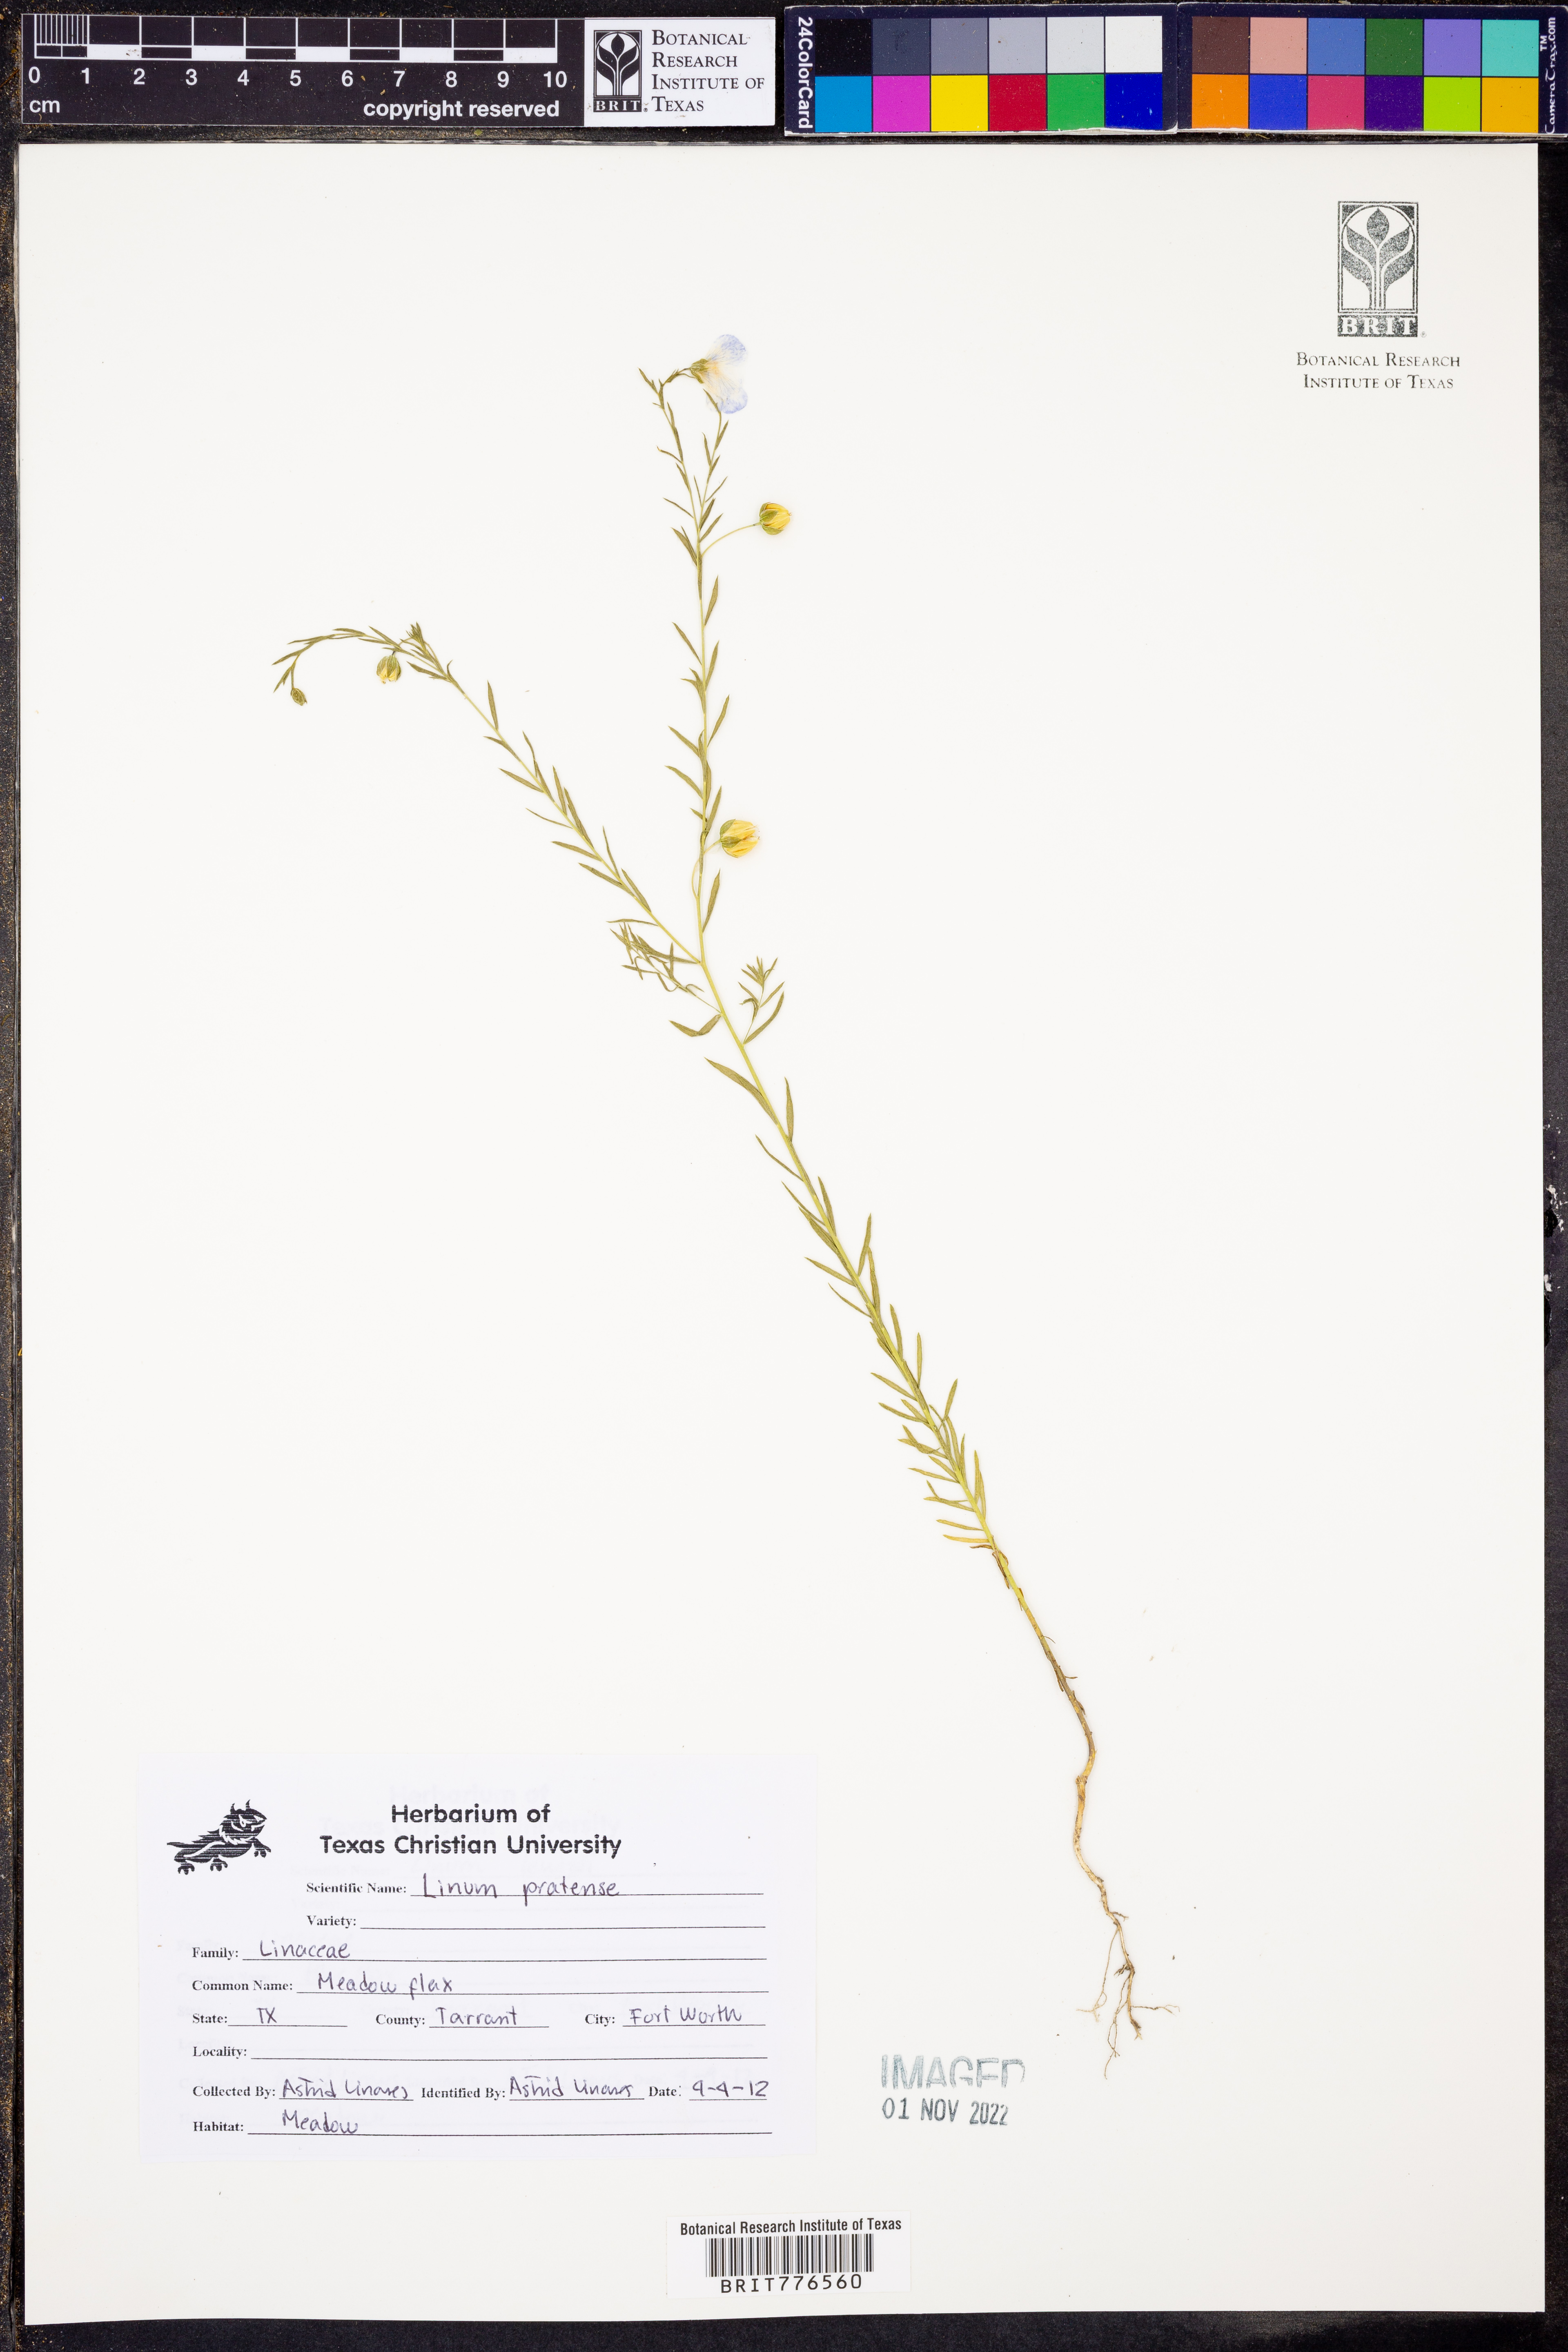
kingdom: Plantae
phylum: Tracheophyta
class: Magnoliopsida
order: Malpighiales
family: Linaceae
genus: Linum
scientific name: Linum pratense
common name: Norton's flax
